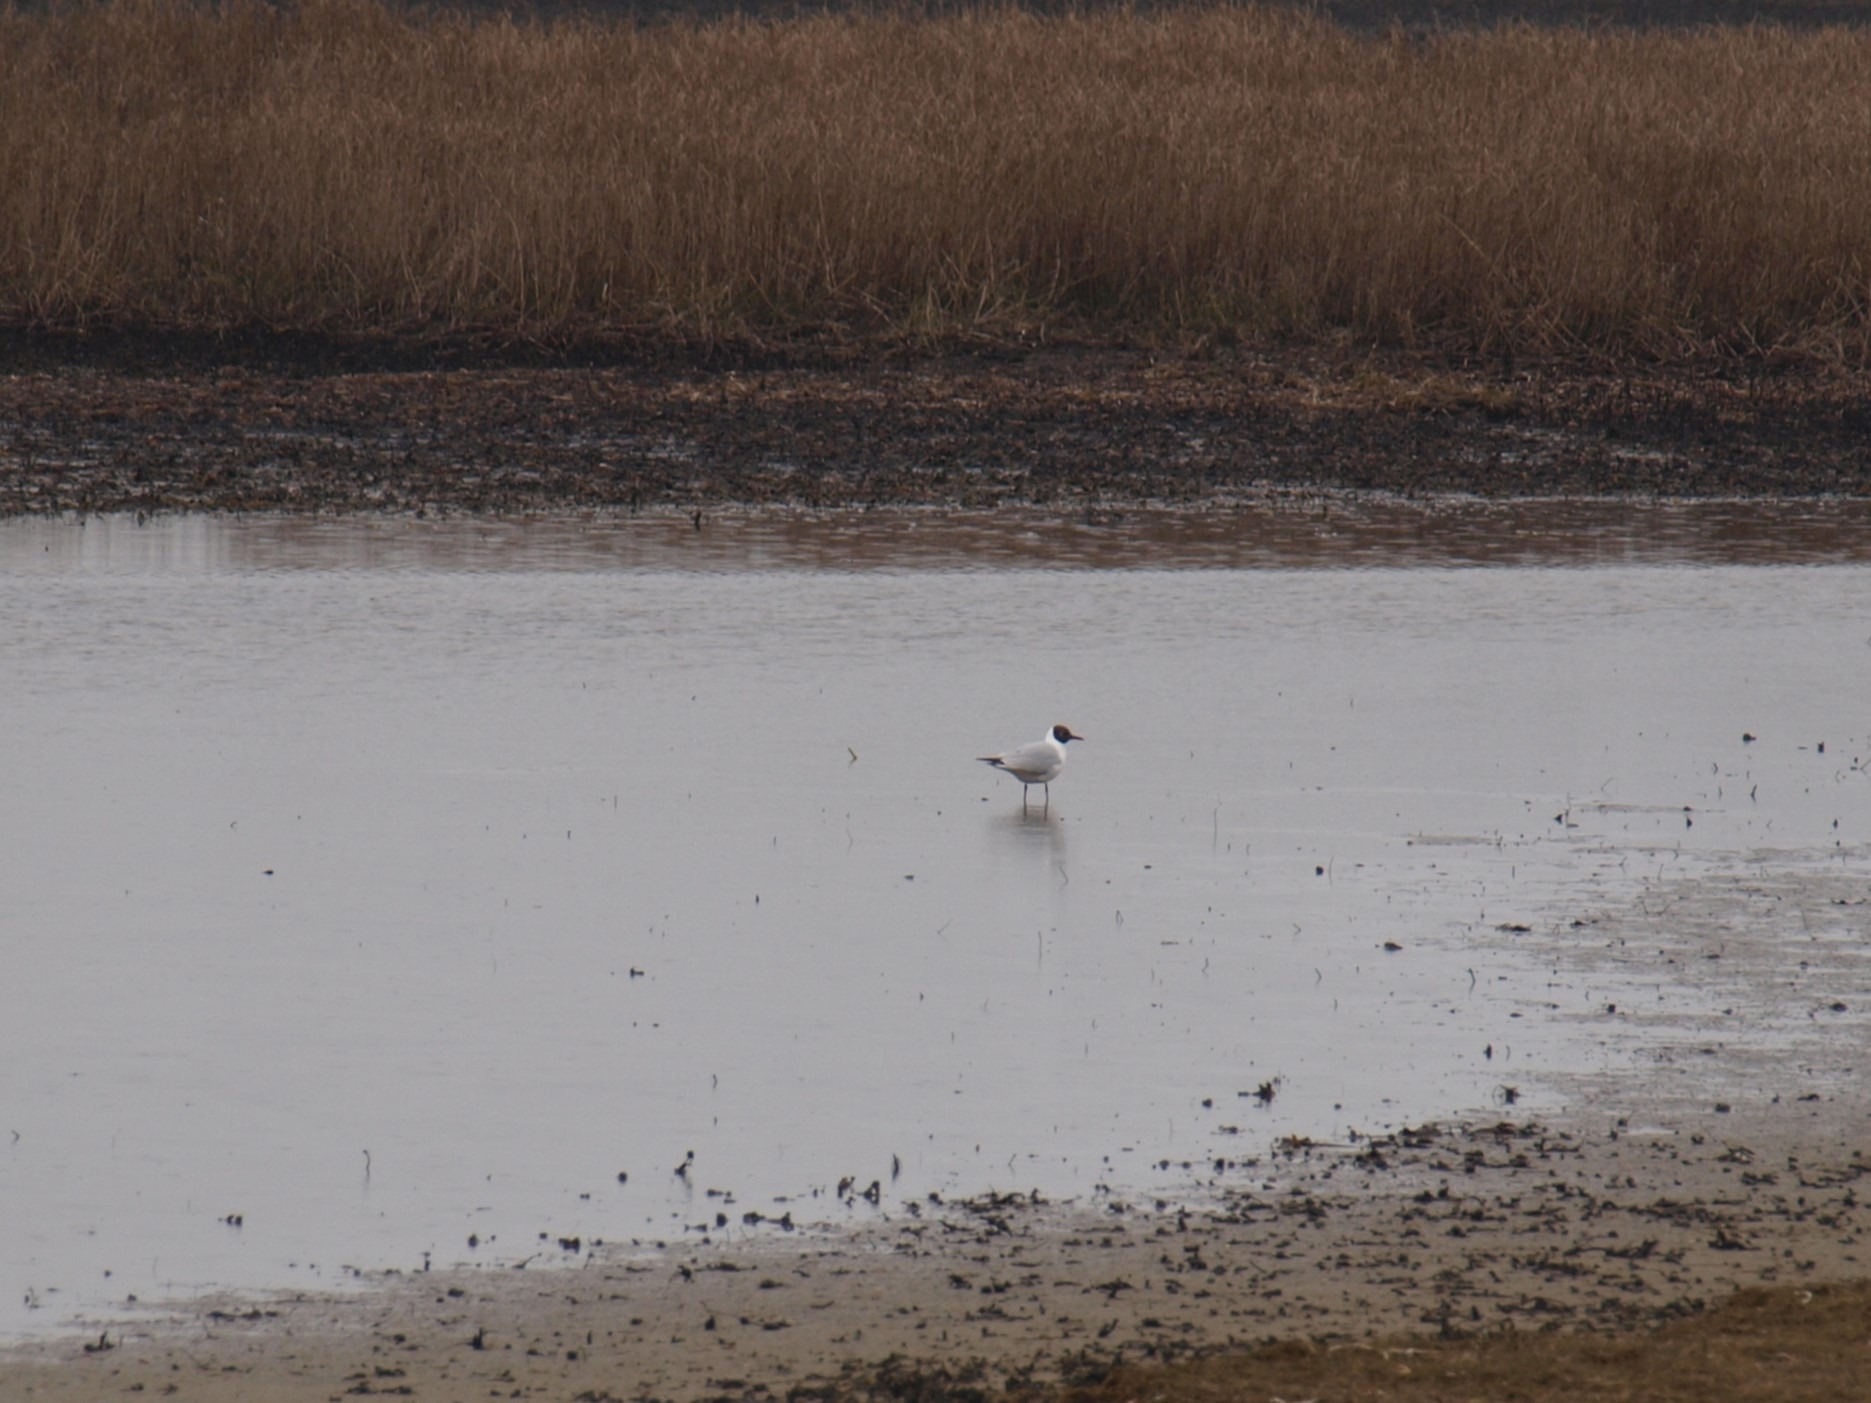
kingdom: Animalia
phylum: Chordata
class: Aves
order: Charadriiformes
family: Laridae
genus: Chroicocephalus
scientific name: Chroicocephalus ridibundus
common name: Hættemåge
